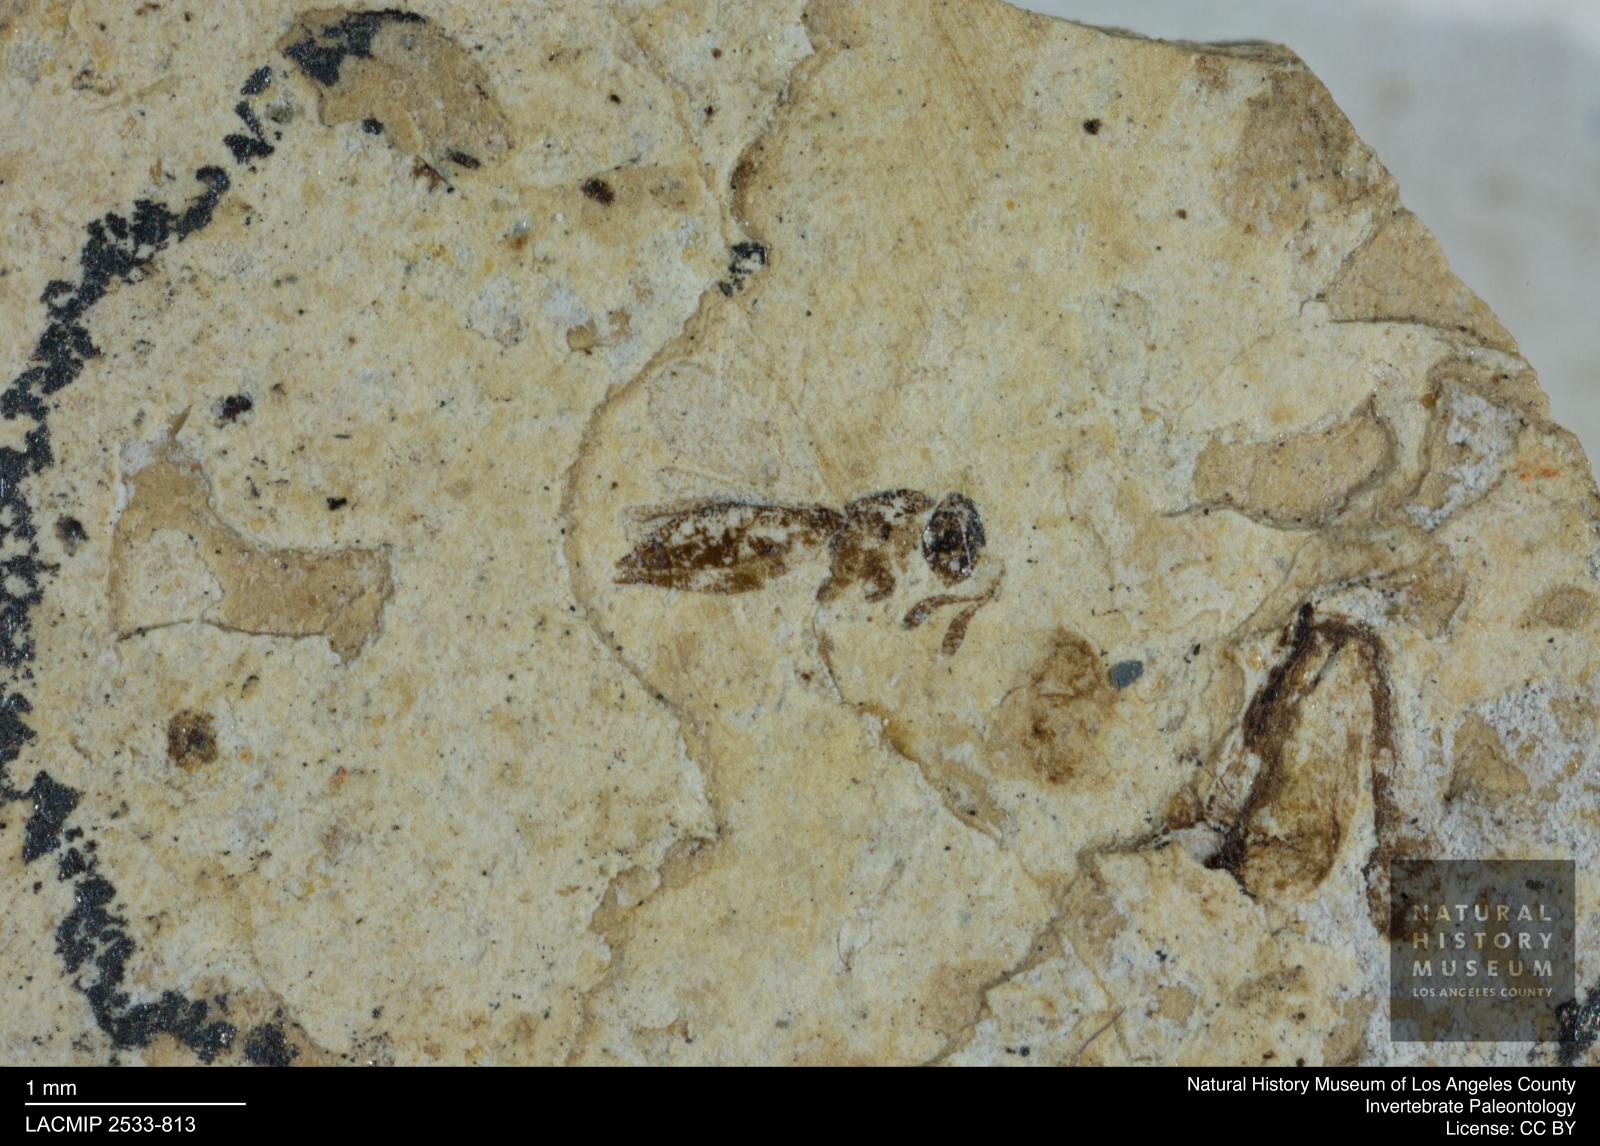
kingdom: Animalia
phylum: Arthropoda
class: Insecta
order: Hemiptera
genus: Diapriites
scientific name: Diapriites minimus
